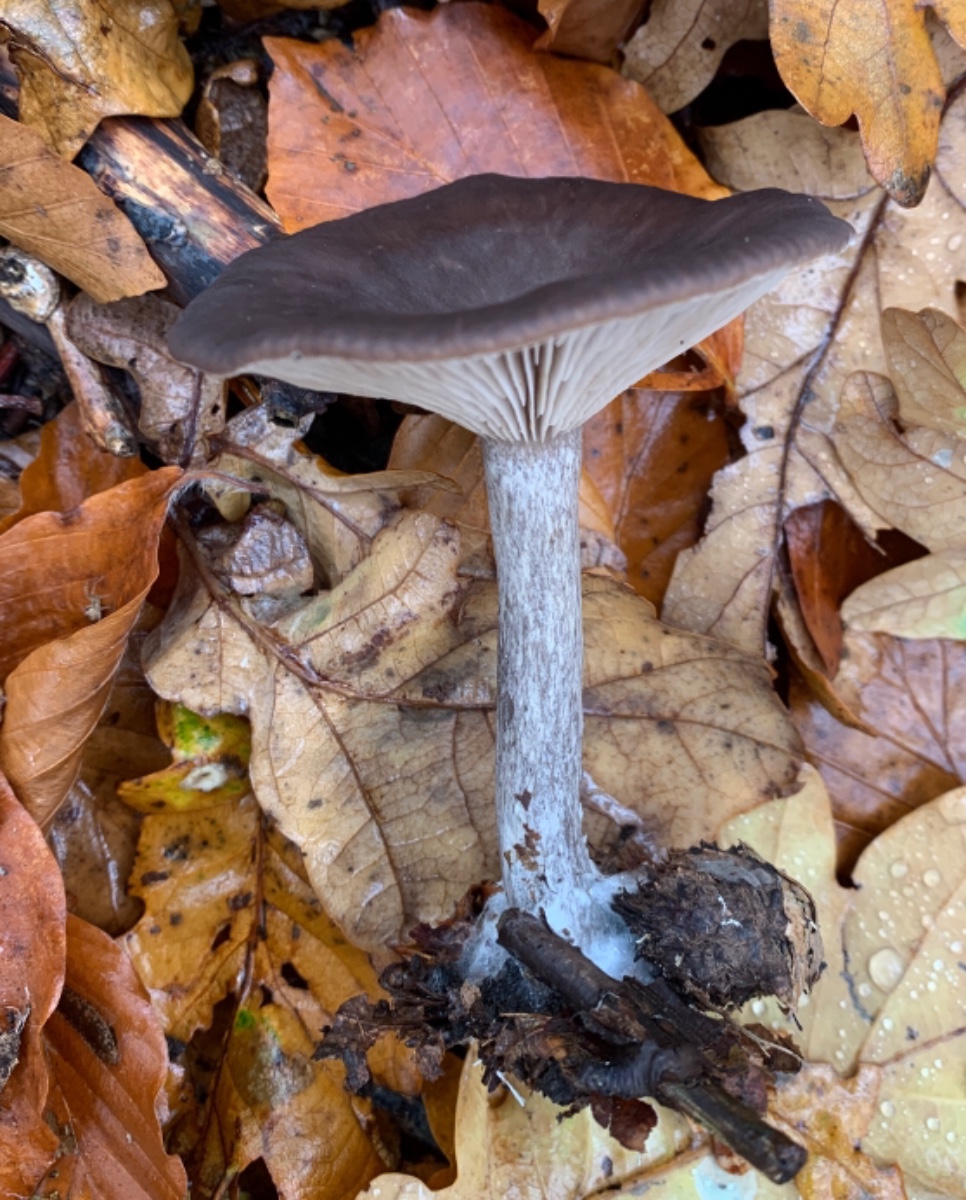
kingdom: Fungi
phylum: Basidiomycota
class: Agaricomycetes
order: Agaricales
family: Pseudoclitocybaceae
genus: Pseudoclitocybe
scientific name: Pseudoclitocybe cyathiformis
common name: almindelig bægertragthat
